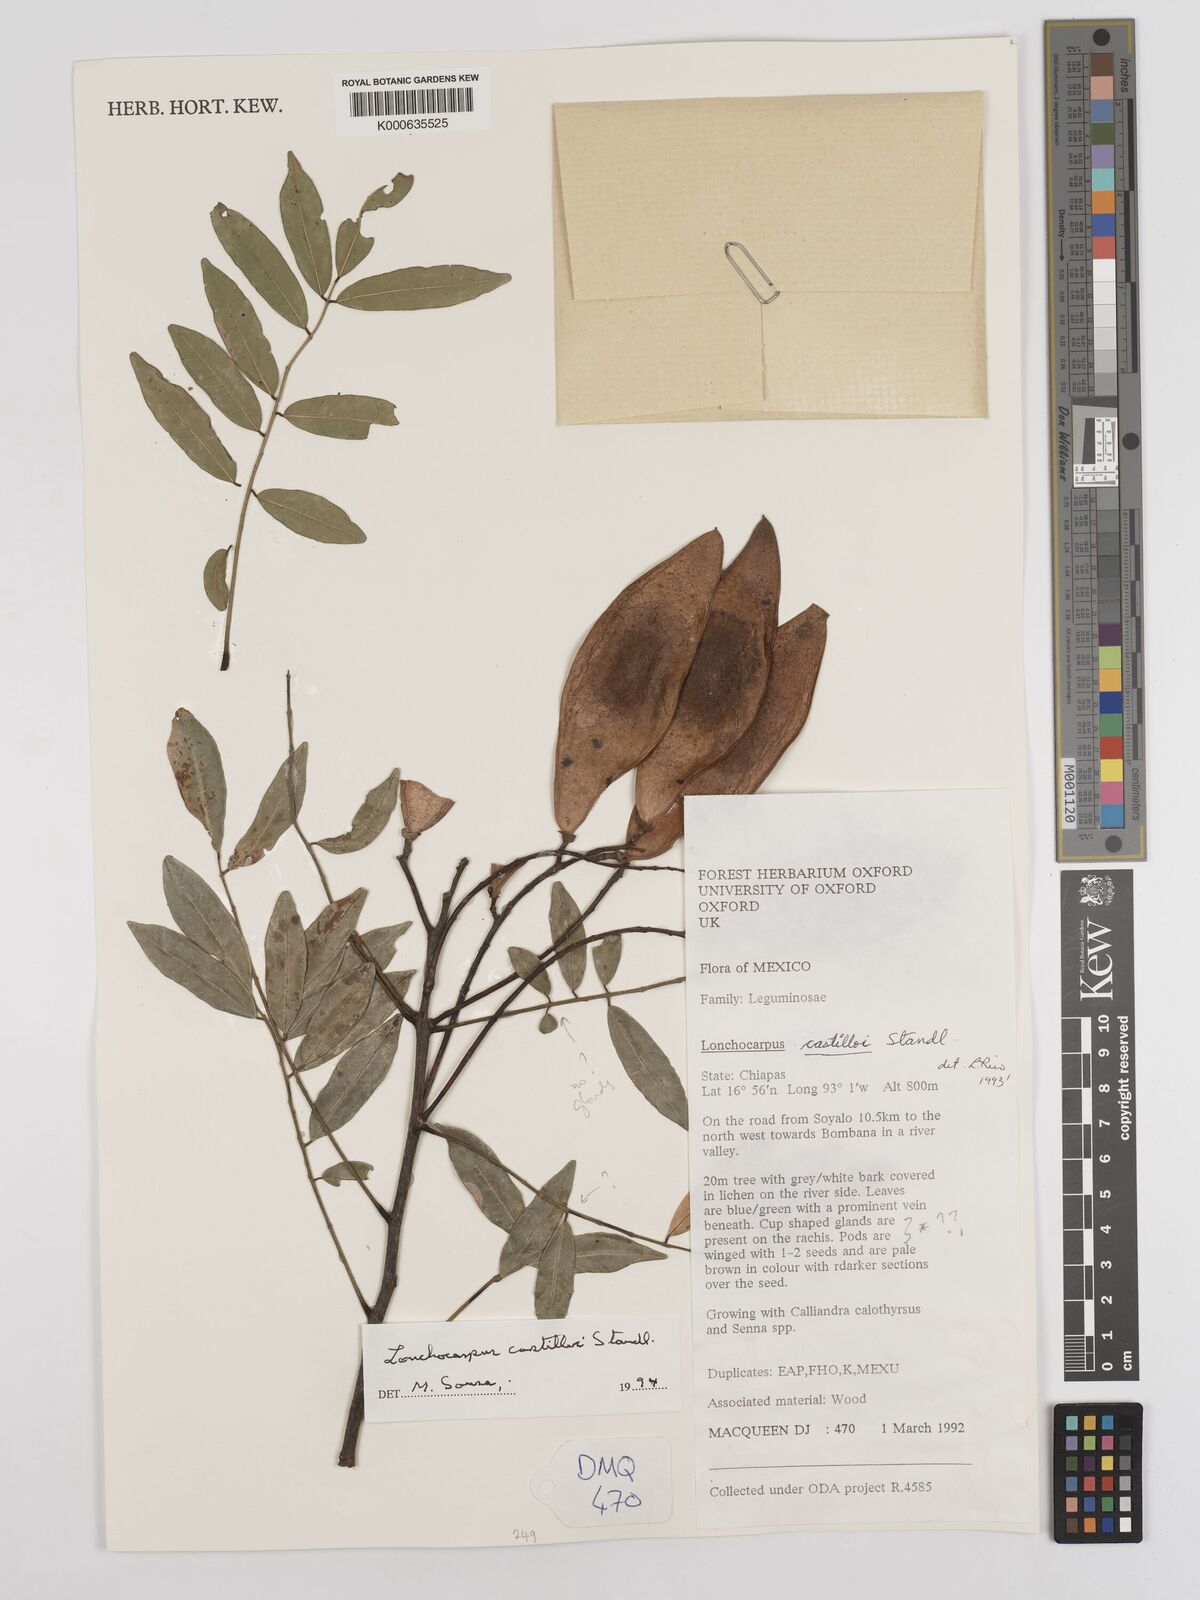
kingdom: Plantae
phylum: Tracheophyta
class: Magnoliopsida
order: Fabales
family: Fabaceae
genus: Lonchocarpus
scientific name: Lonchocarpus castilloi
